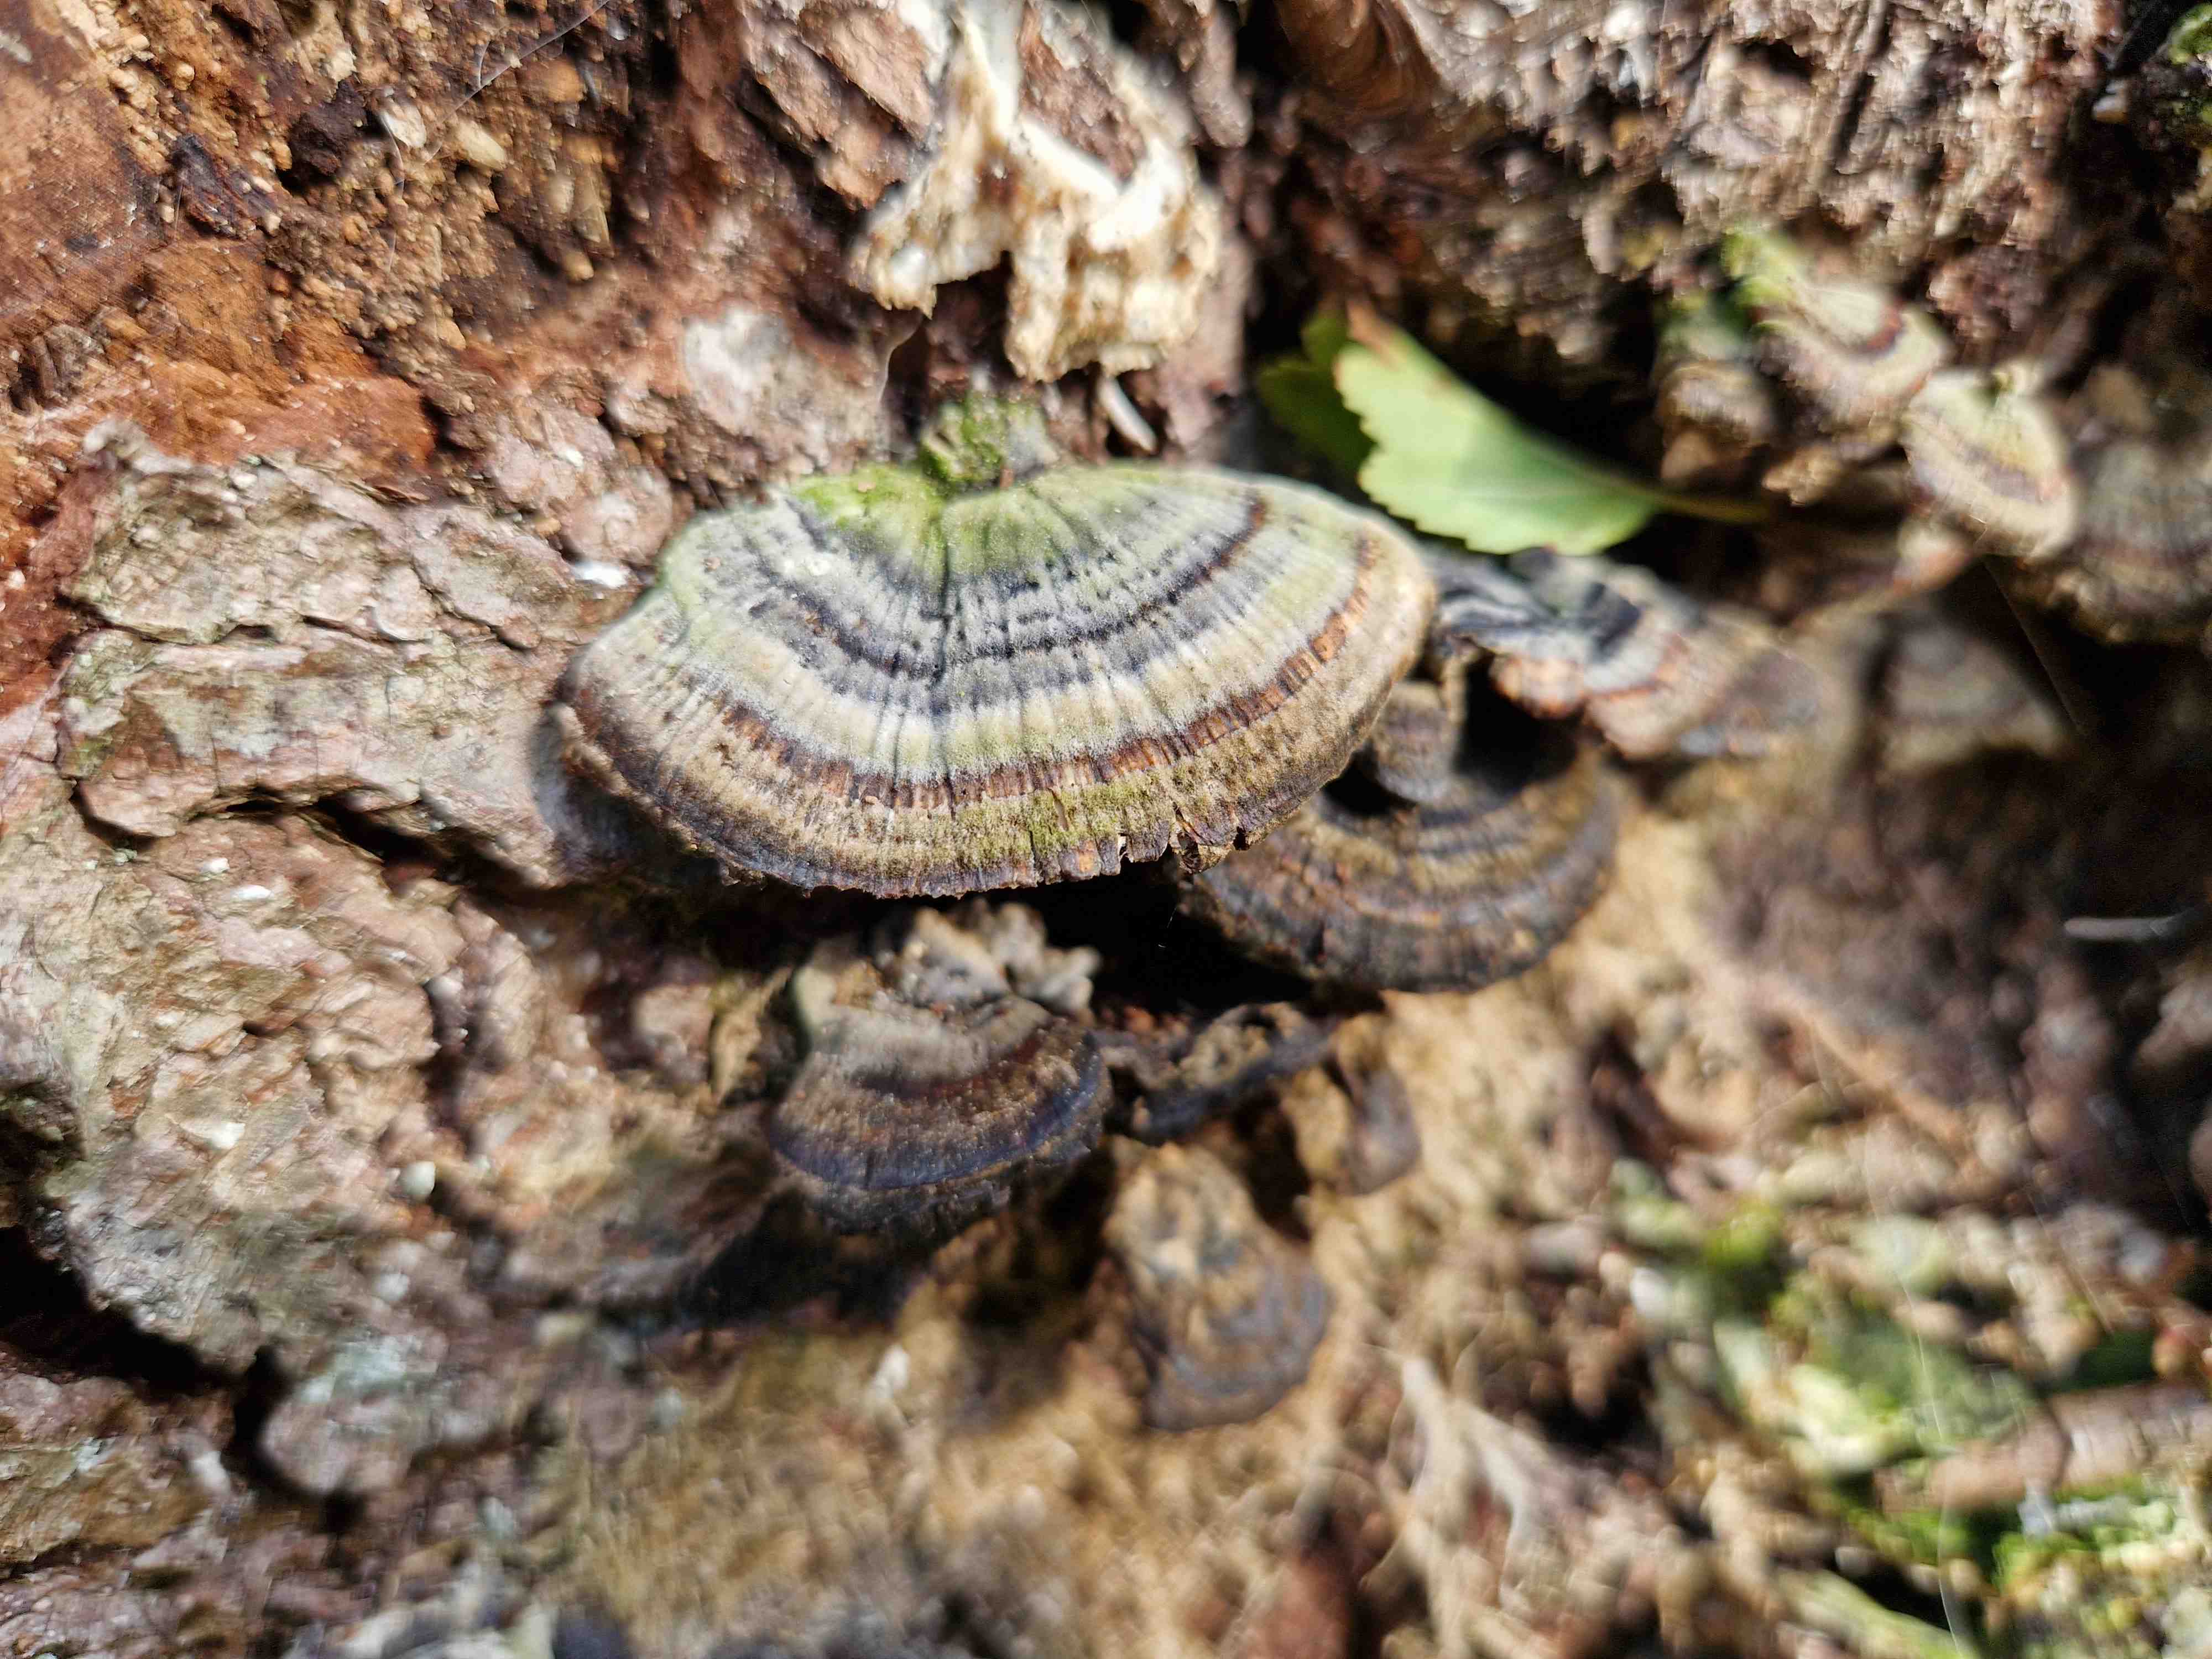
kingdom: Fungi
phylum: Basidiomycota
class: Agaricomycetes
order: Polyporales
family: Polyporaceae
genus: Trametes
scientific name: Trametes versicolor
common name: broget læderporesvamp
